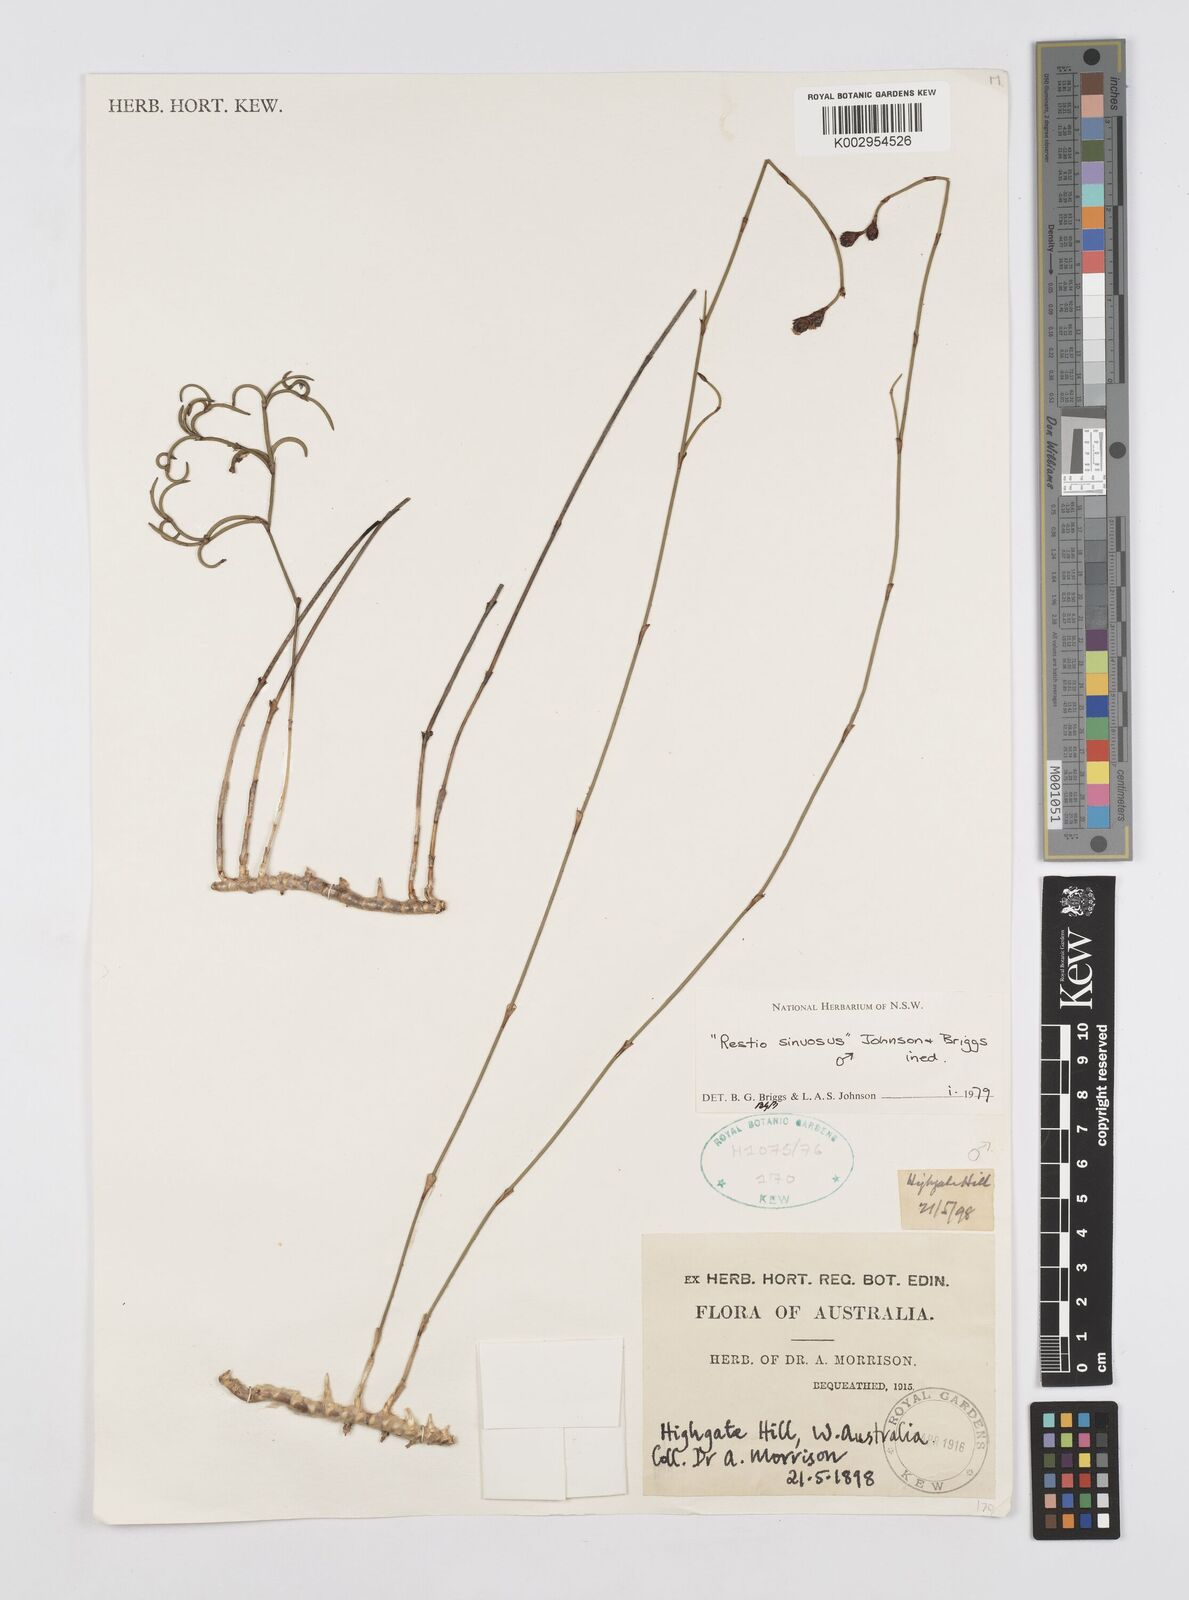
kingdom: Plantae
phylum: Tracheophyta
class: Liliopsida
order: Poales
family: Restionaceae
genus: Chordifex
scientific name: Chordifex sinuosus
